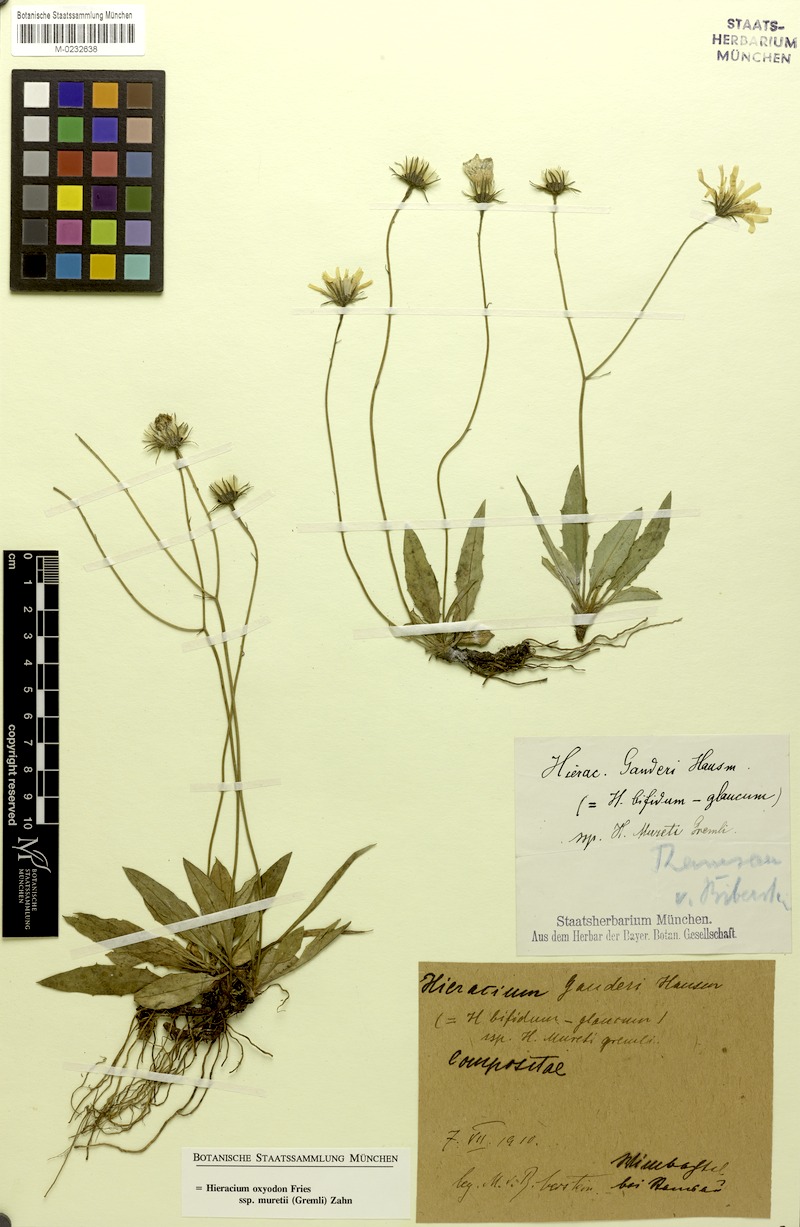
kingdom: Plantae
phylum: Tracheophyta
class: Magnoliopsida
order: Asterales
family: Asteraceae
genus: Hieracium
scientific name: Hieracium oxyodon
